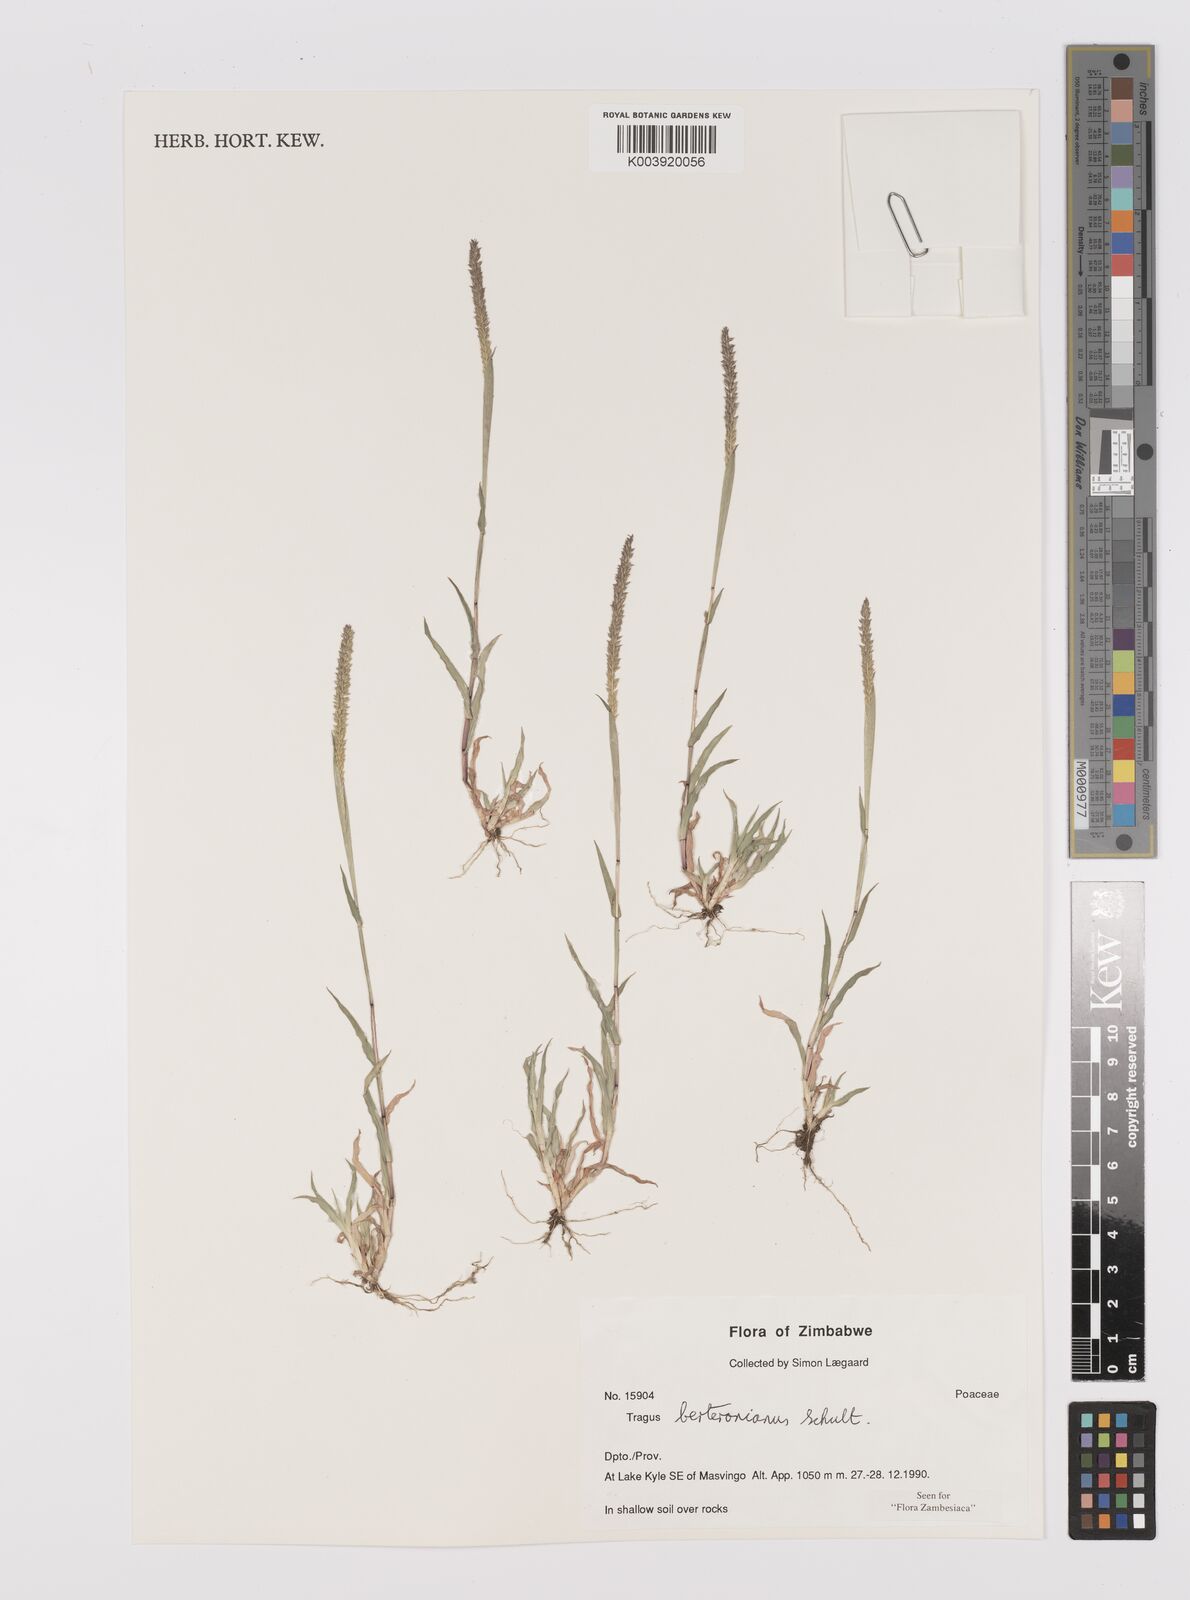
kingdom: Plantae
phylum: Tracheophyta
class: Liliopsida
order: Poales
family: Poaceae
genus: Tragus
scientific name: Tragus berteronianus
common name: African bur-grass
